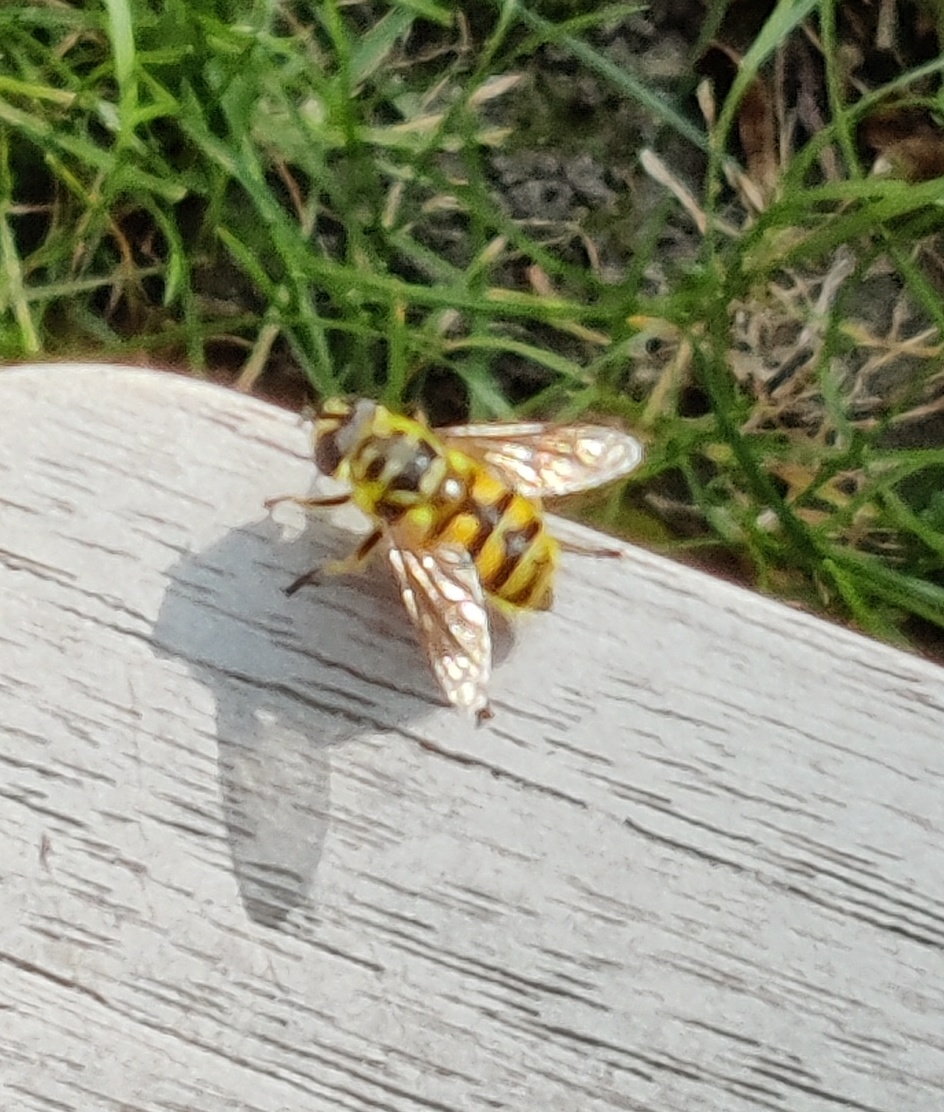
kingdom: Animalia
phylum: Arthropoda
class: Insecta
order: Diptera
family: Syrphidae
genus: Myathropa
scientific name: Myathropa florea
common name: Dødningehoved-svirreflue
